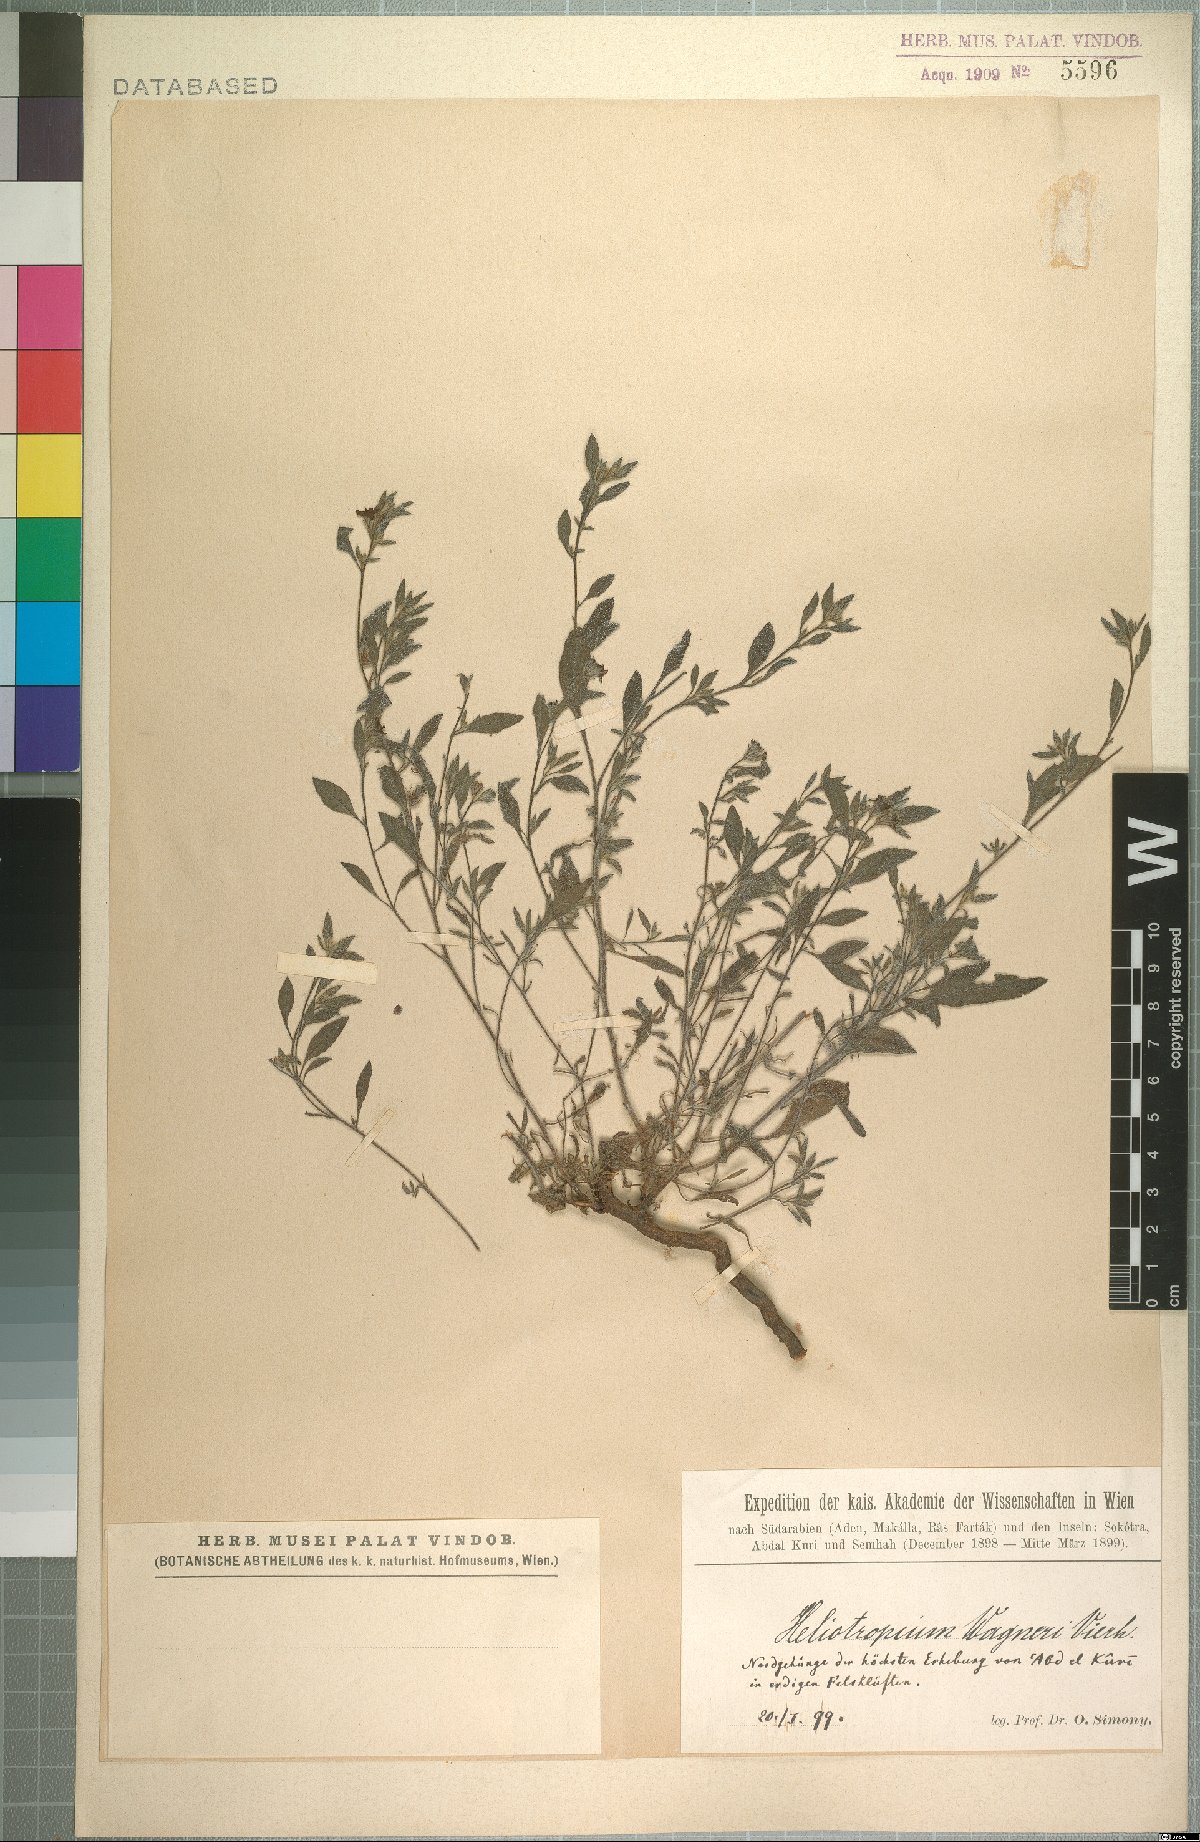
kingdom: Plantae
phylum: Tracheophyta
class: Magnoliopsida
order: Boraginales
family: Heliotropiaceae
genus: Heliotropium
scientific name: Heliotropium wagneri
